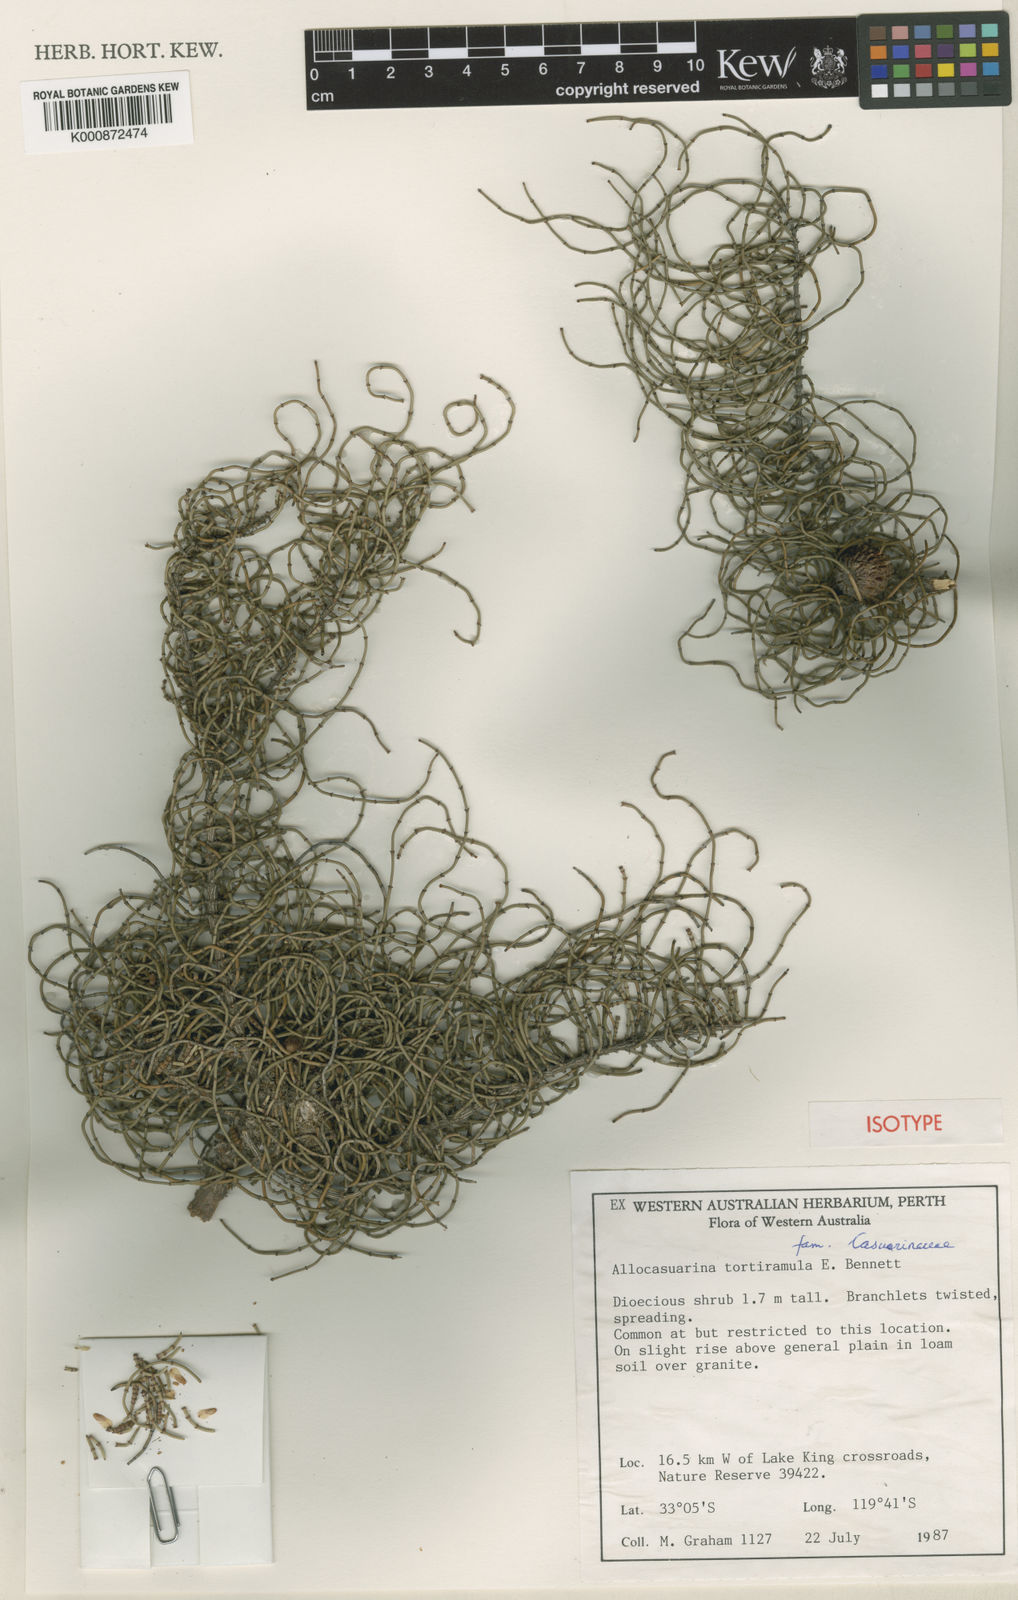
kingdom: Plantae
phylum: Tracheophyta
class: Magnoliopsida
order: Fagales
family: Casuarinaceae
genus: Allocasuarina
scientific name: Allocasuarina tortiramula
